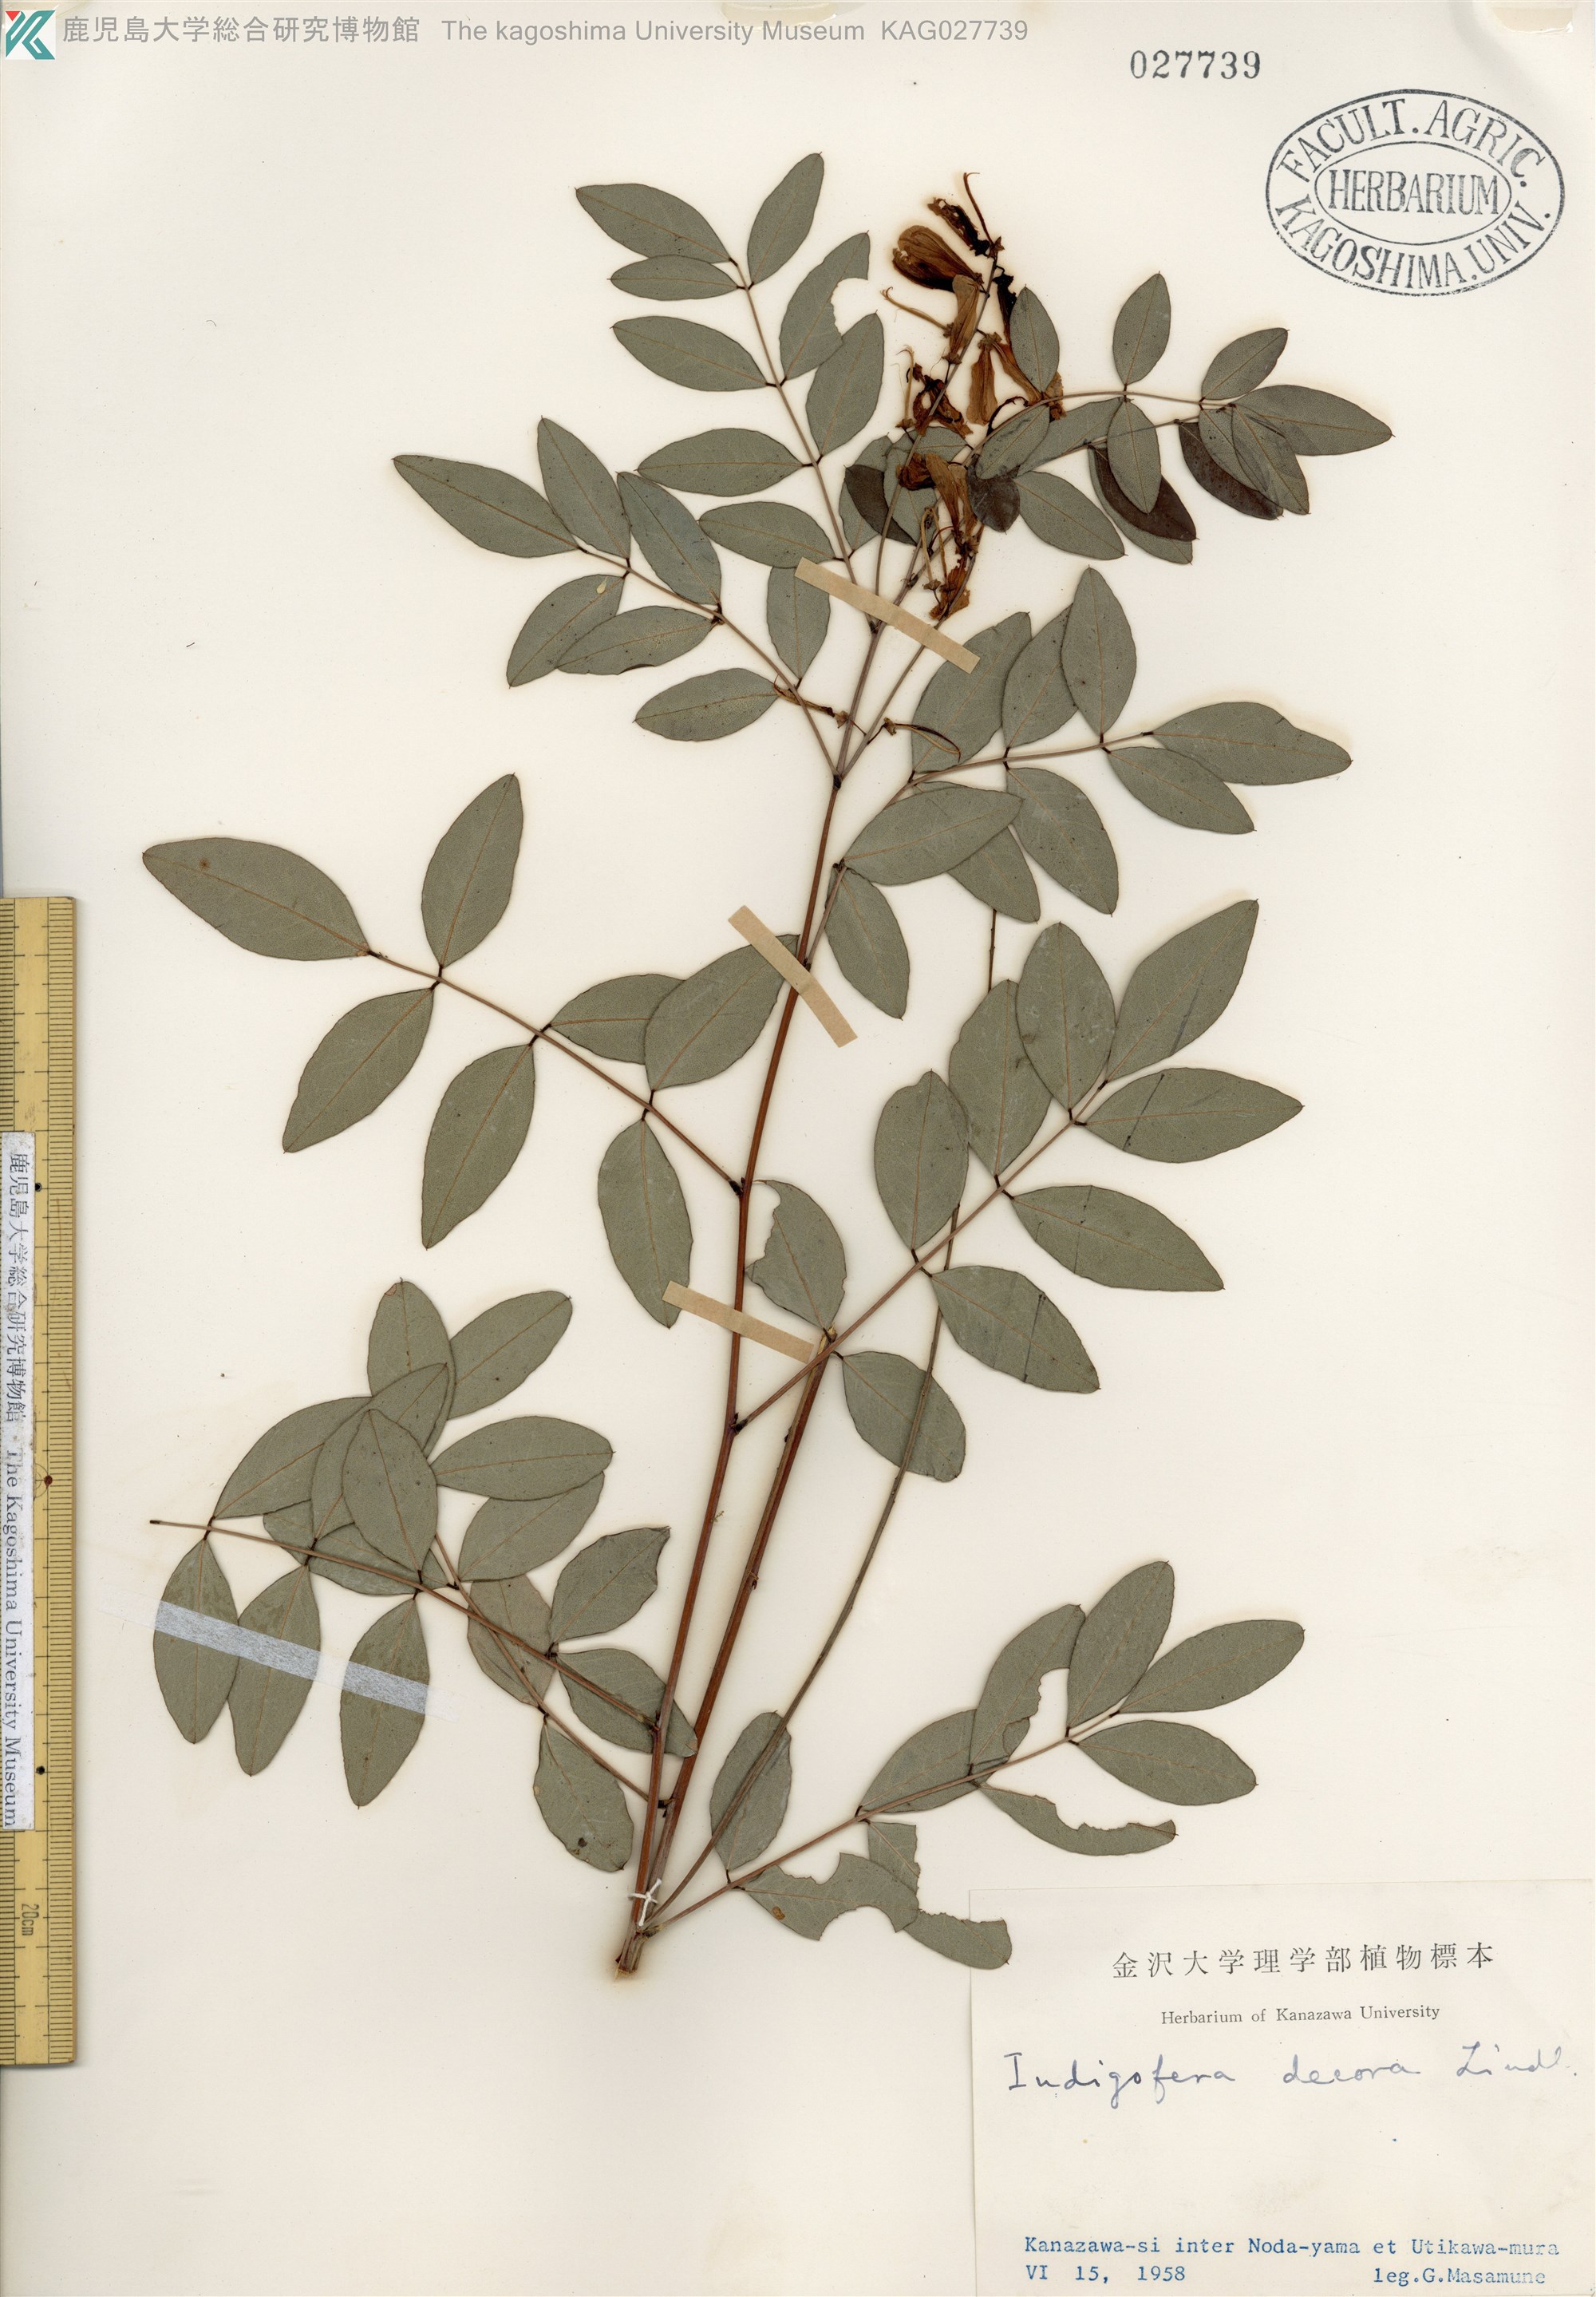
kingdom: Plantae
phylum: Tracheophyta
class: Magnoliopsida
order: Fabales
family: Fabaceae
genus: Indigofera
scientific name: Indigofera incarnata
